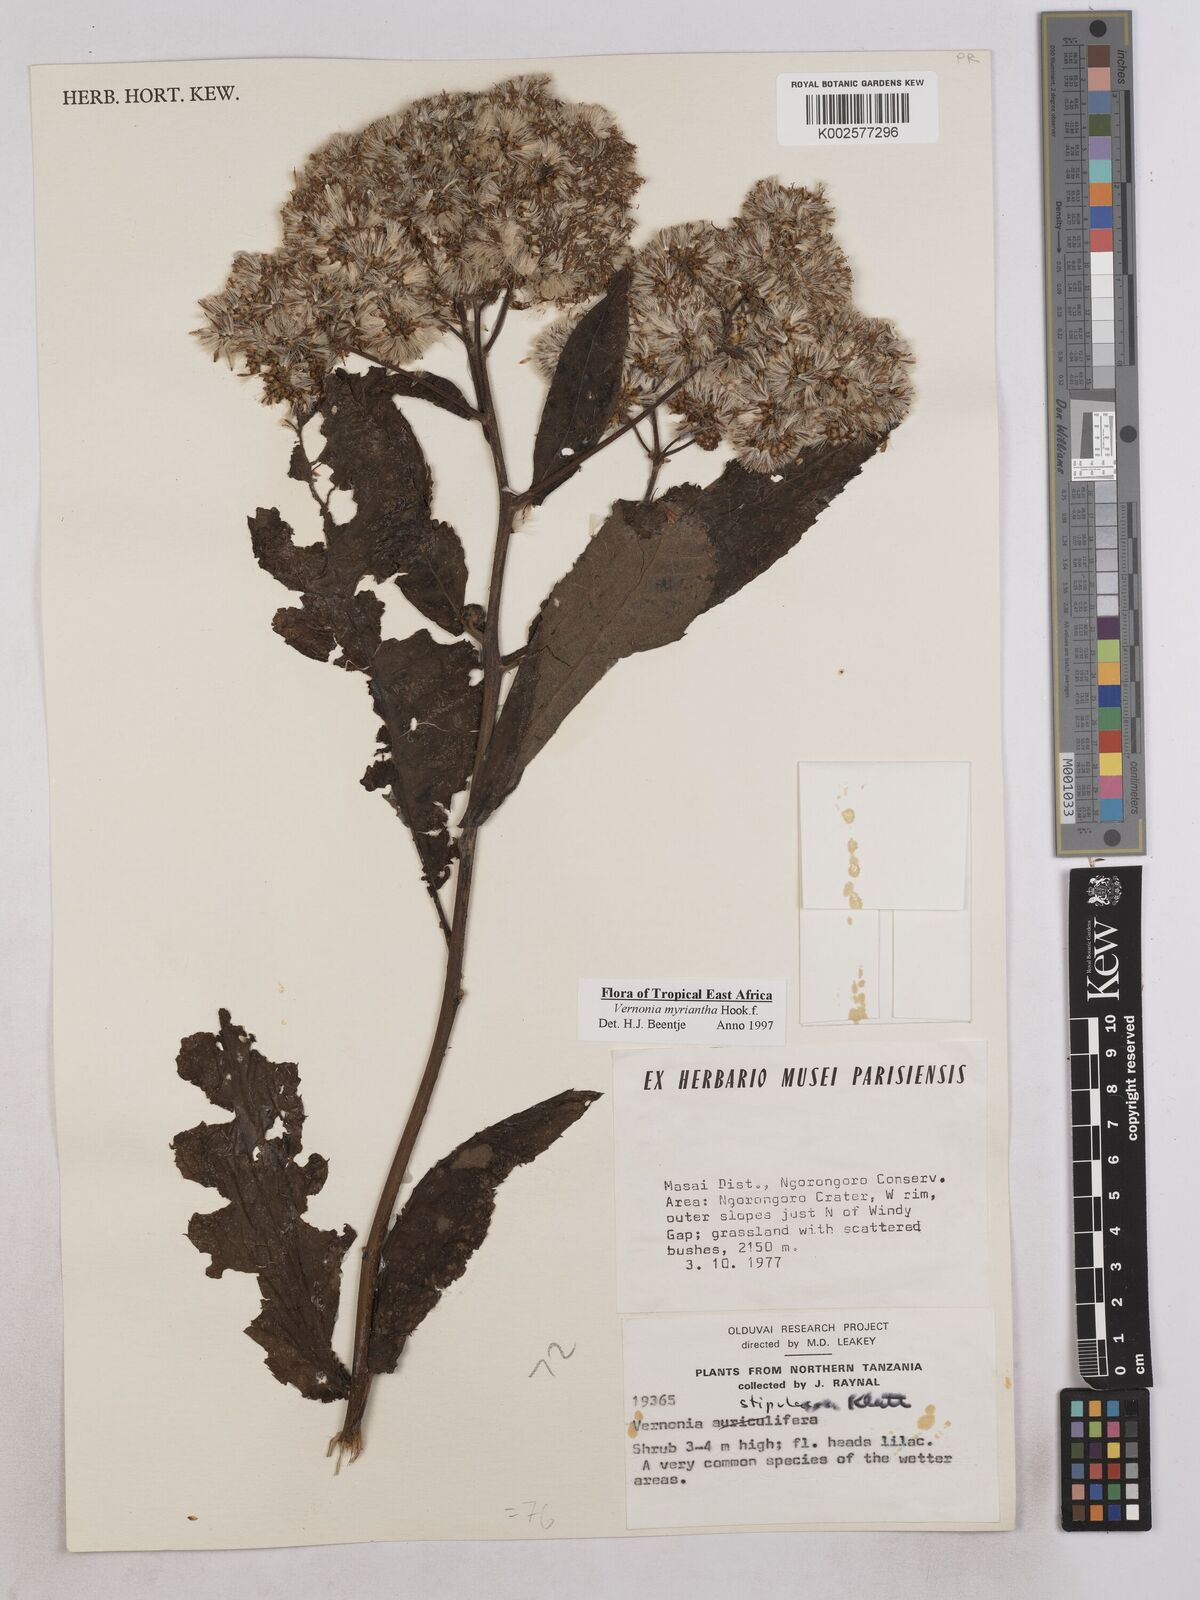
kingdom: Plantae
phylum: Tracheophyta
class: Magnoliopsida
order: Asterales
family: Asteraceae
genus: Gymnanthemum
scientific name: Gymnanthemum myrianthum
